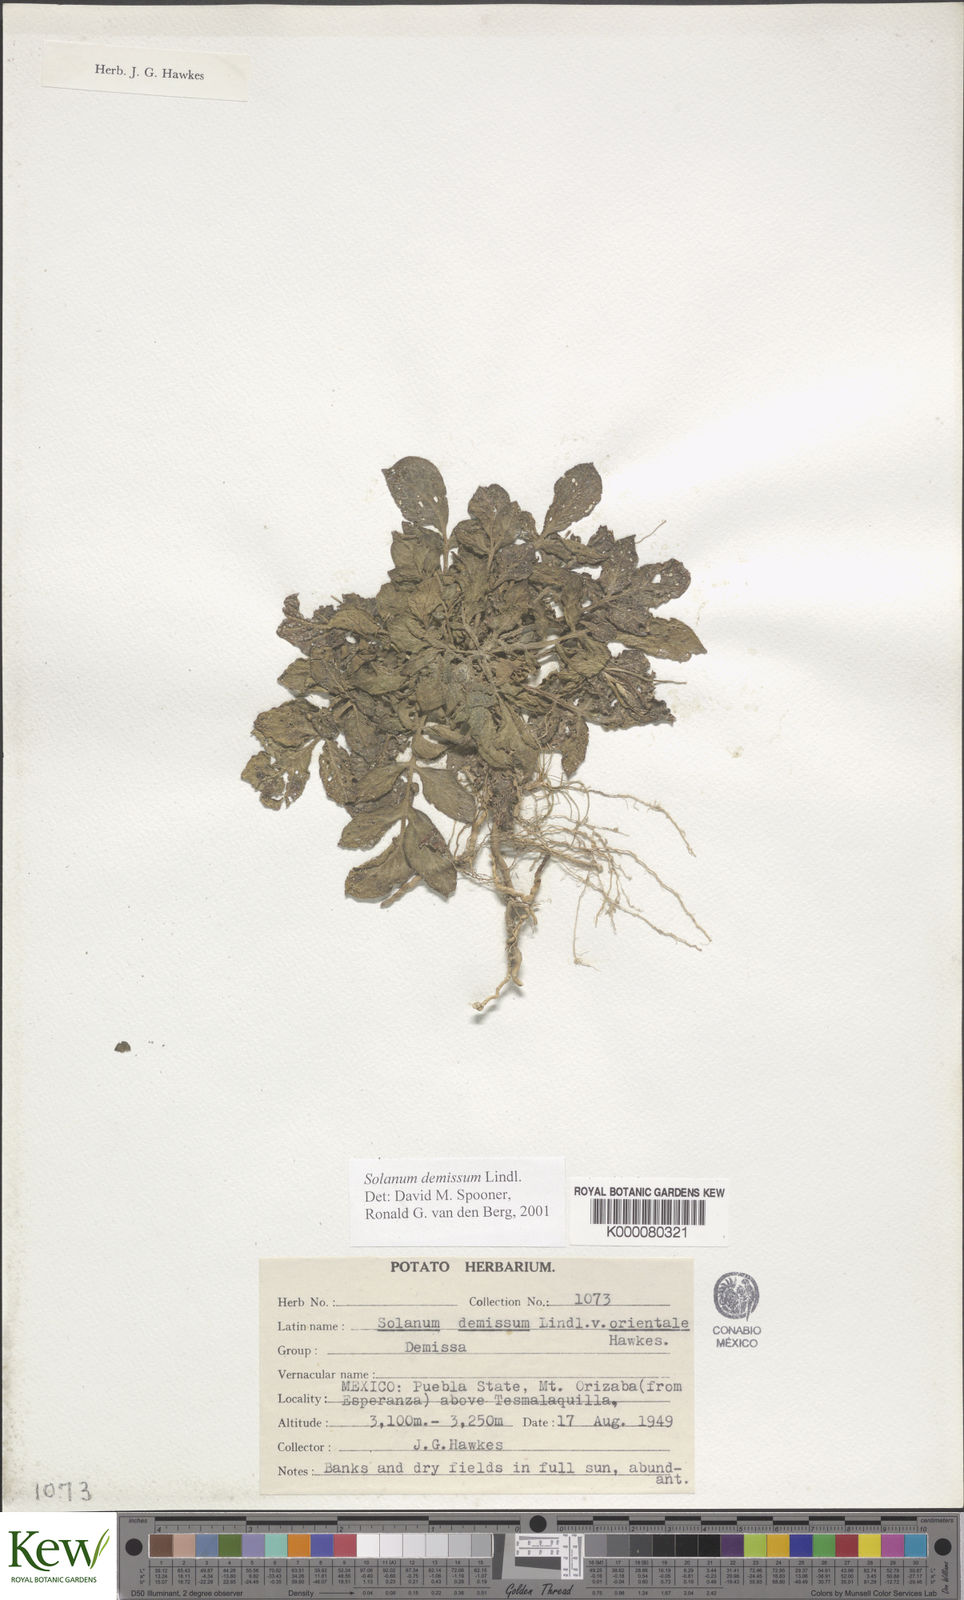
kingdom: Plantae
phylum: Tracheophyta
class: Magnoliopsida
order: Solanales
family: Solanaceae
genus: Solanum
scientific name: Solanum demissum
